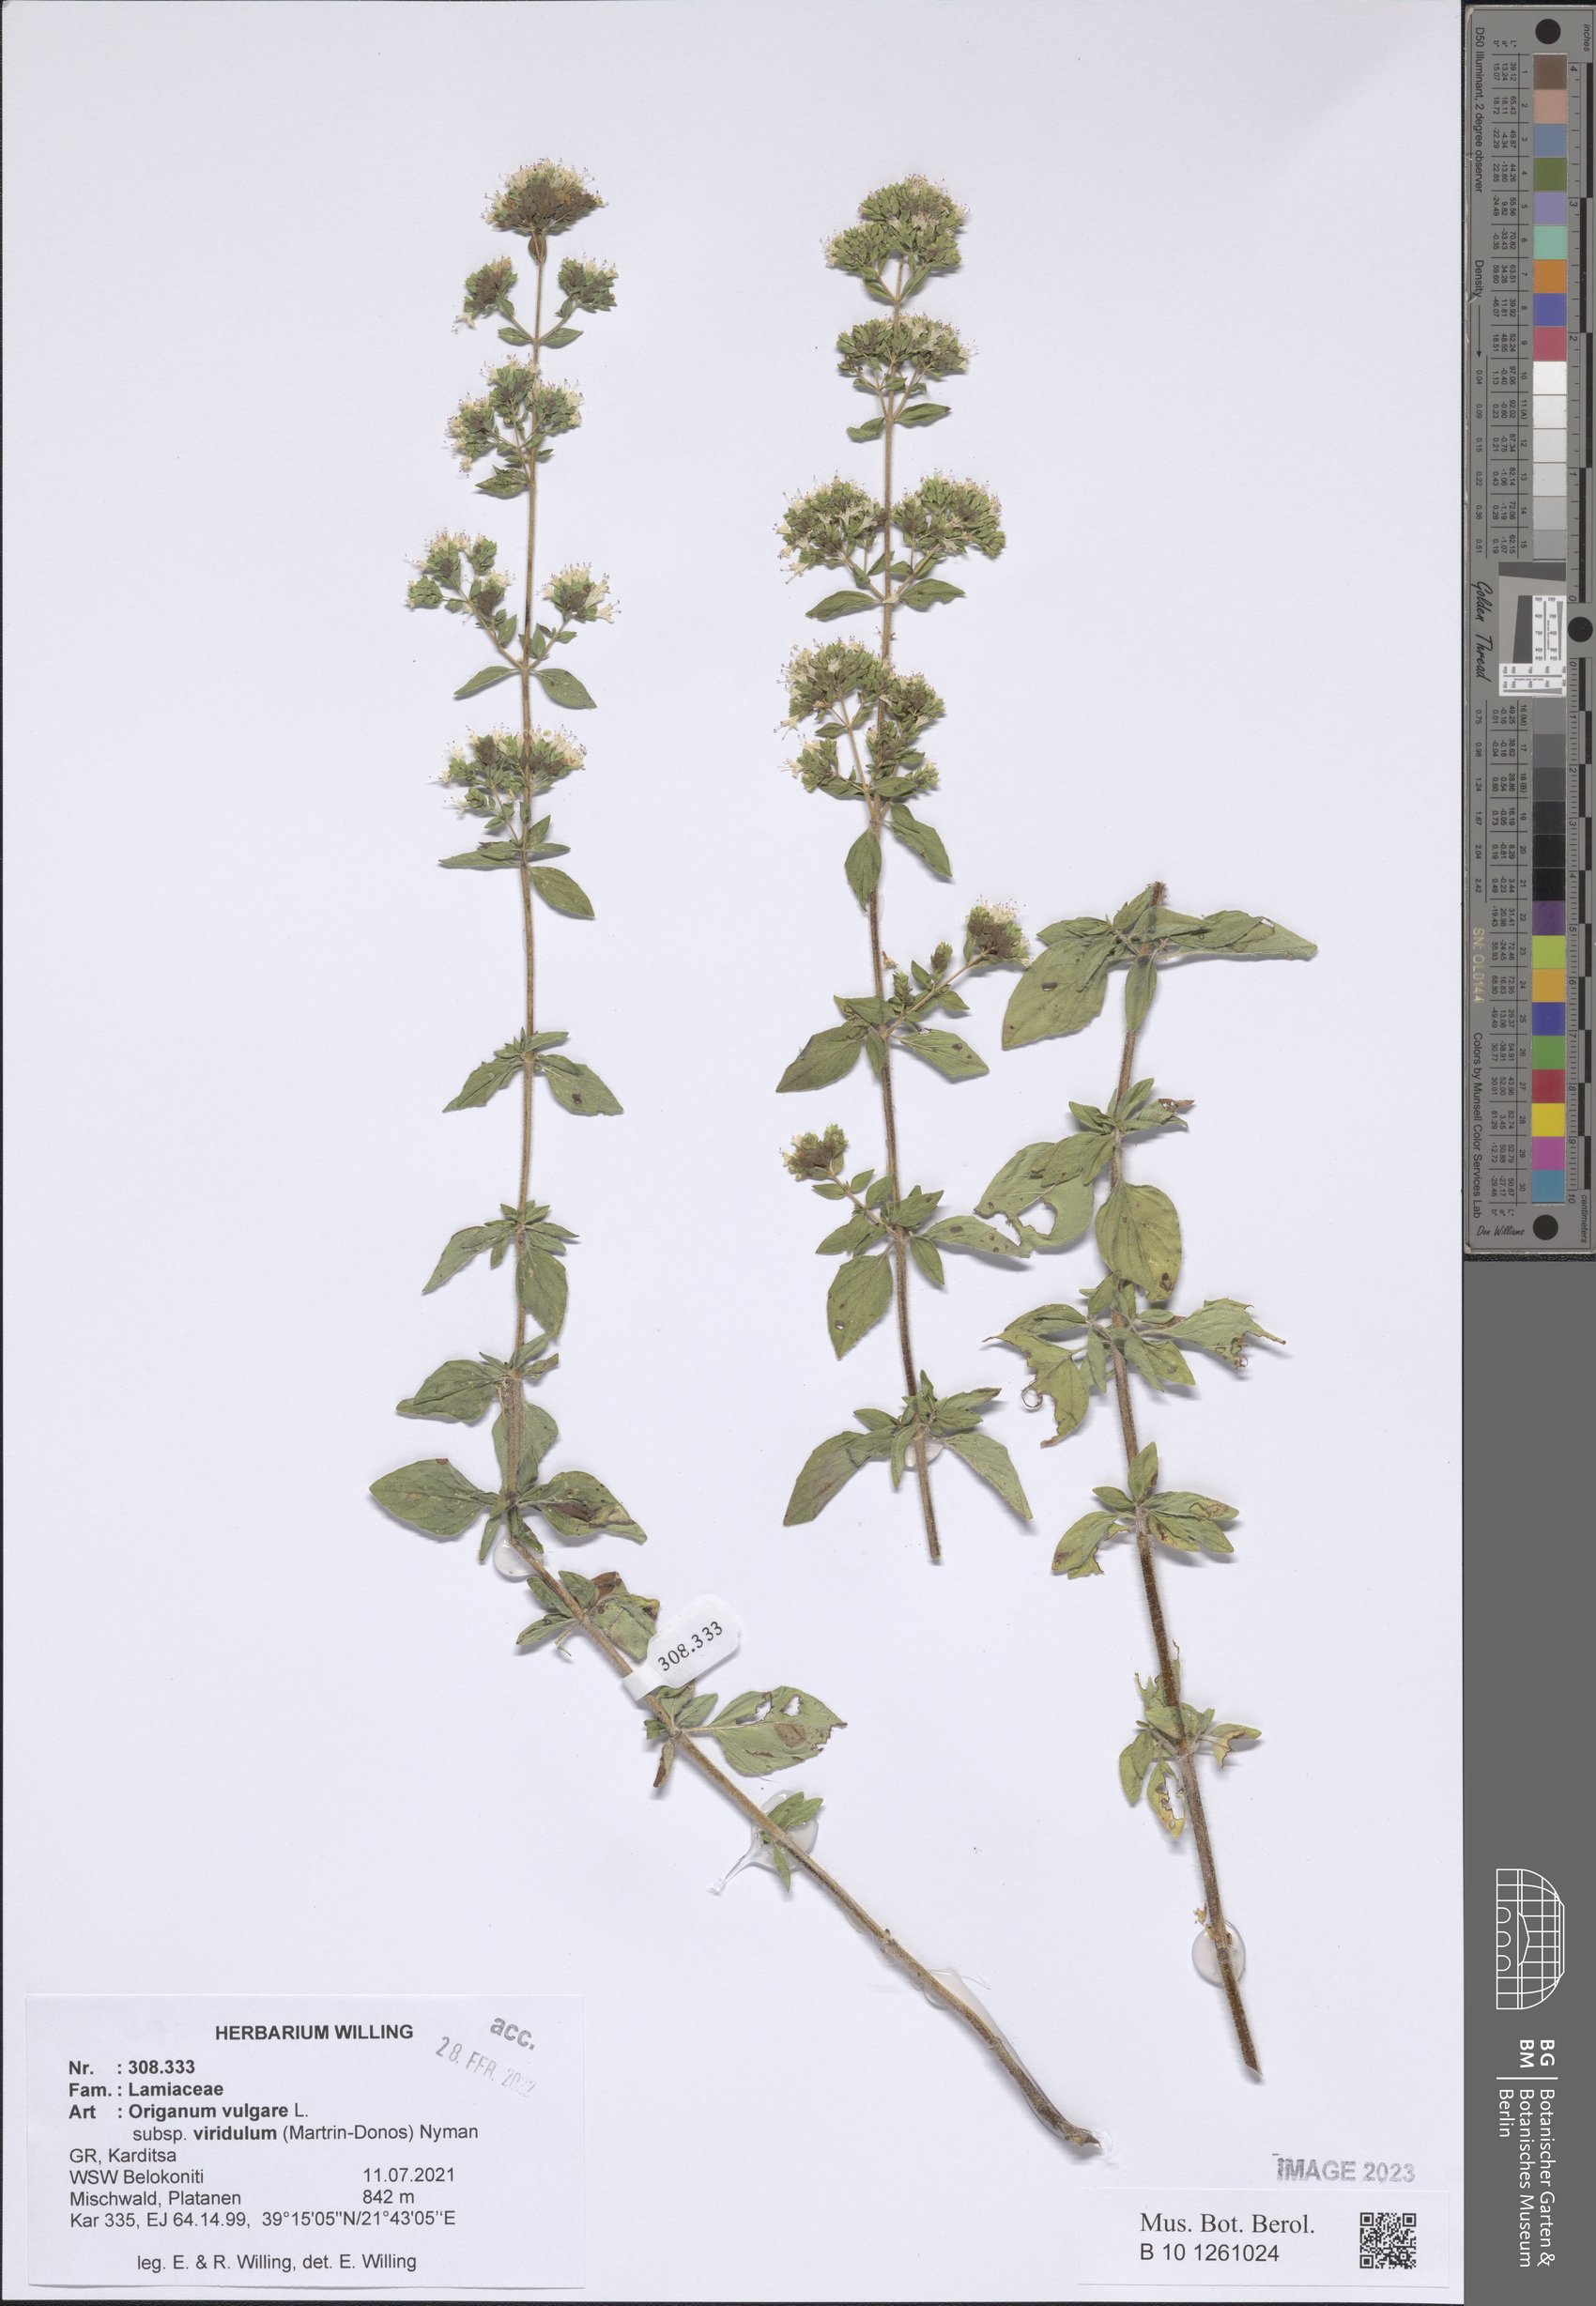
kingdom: Plantae
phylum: Tracheophyta
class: Magnoliopsida
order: Lamiales
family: Lamiaceae
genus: Origanum
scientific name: Origanum vulgare
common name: Wild marjoram
